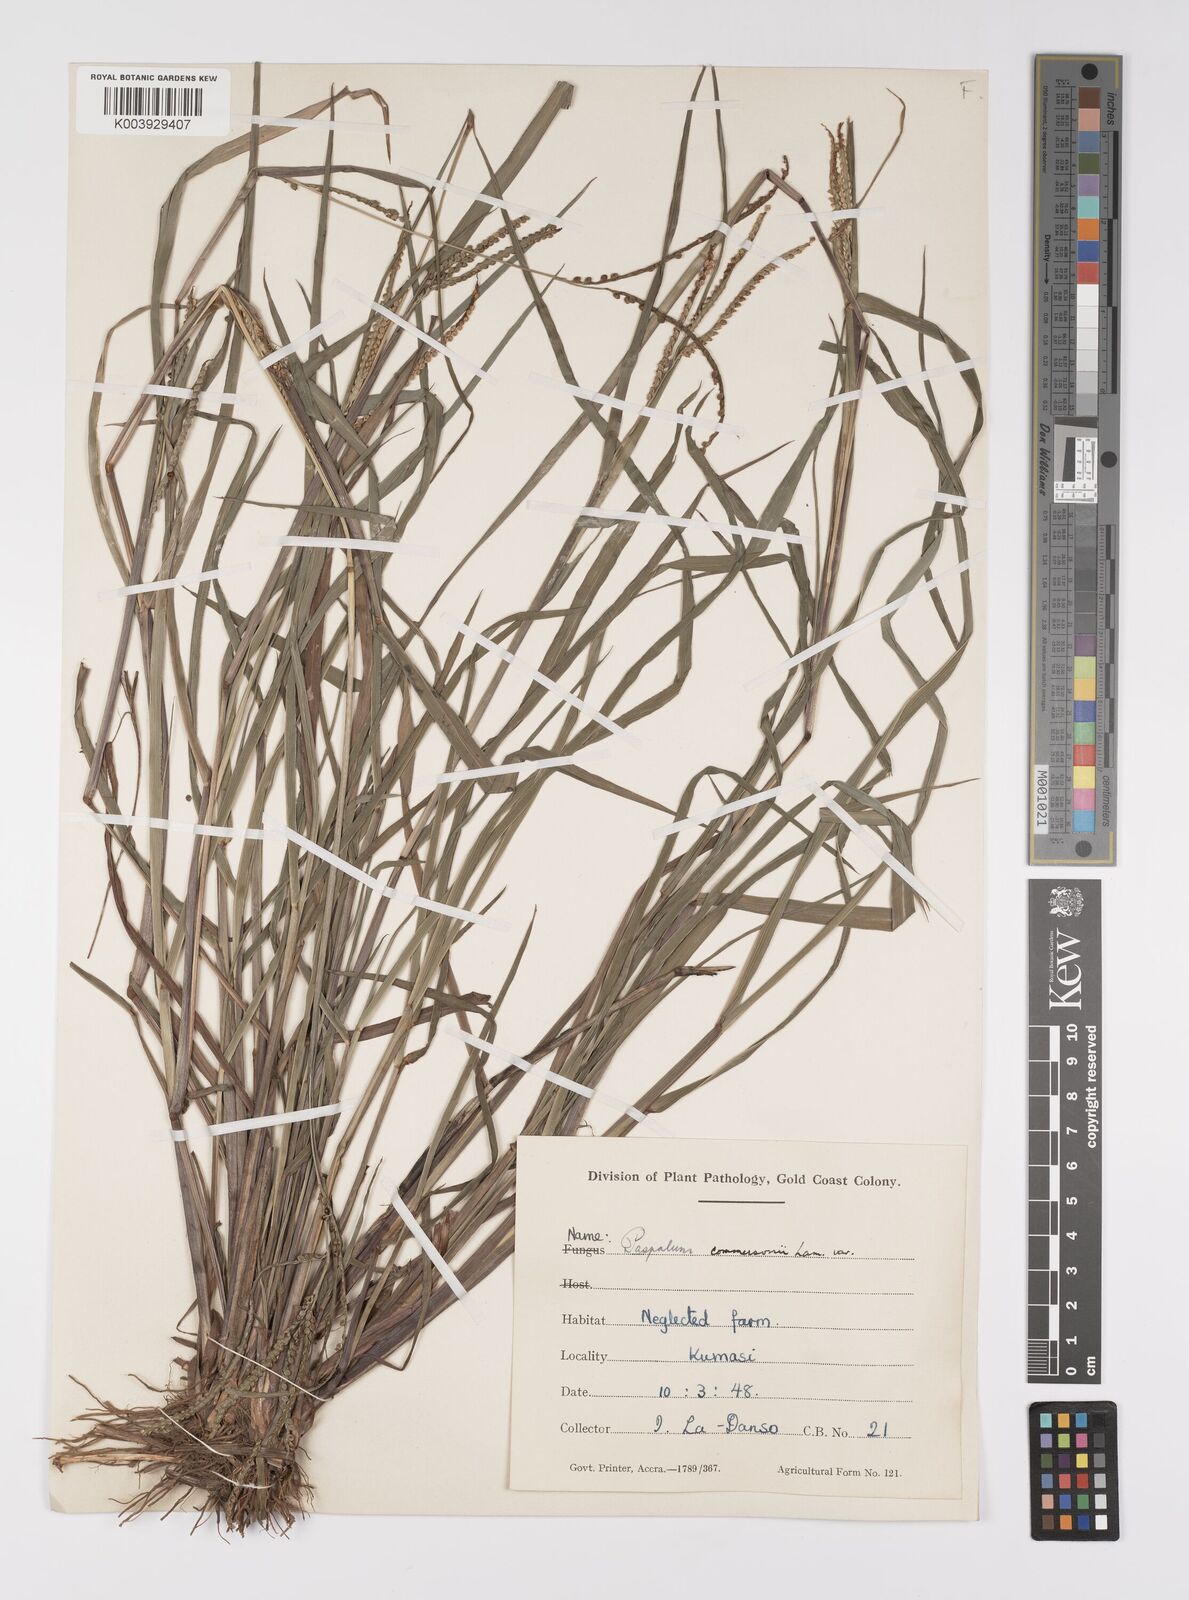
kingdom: Plantae
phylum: Tracheophyta
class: Liliopsida
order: Poales
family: Poaceae
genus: Paspalum
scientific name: Paspalum scrobiculatum
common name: Kodo millet
